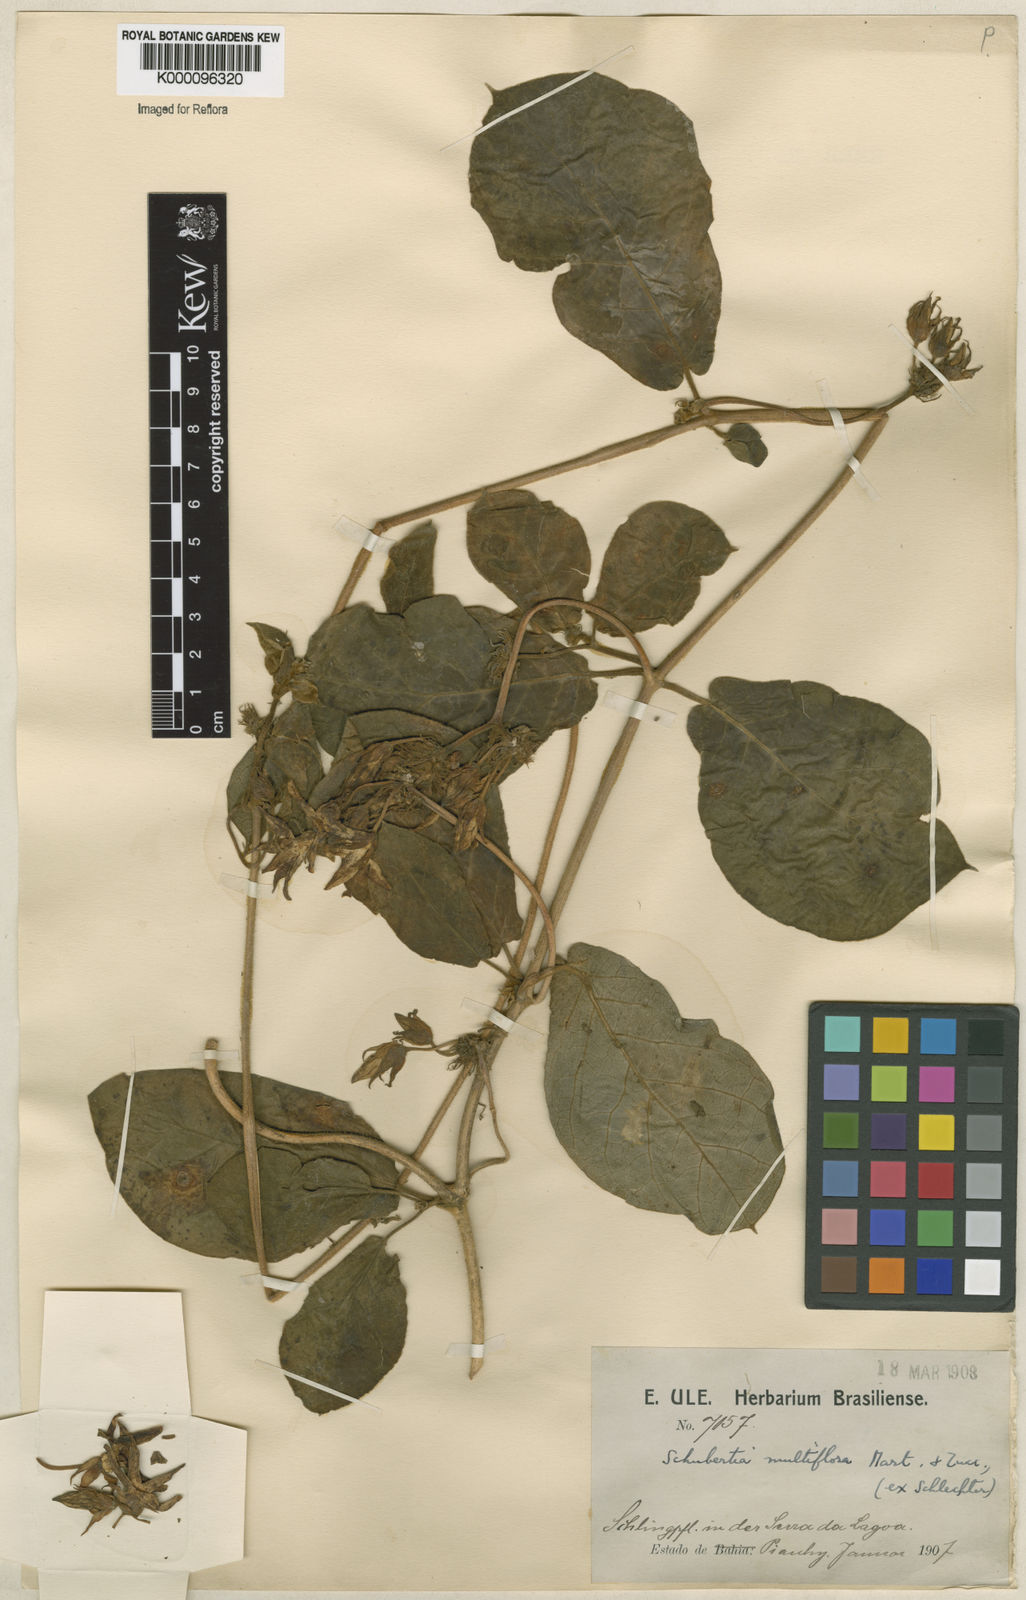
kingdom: Plantae
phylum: Tracheophyta
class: Magnoliopsida
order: Gentianales
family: Apocynaceae
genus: Schubertia
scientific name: Schubertia multiflora
